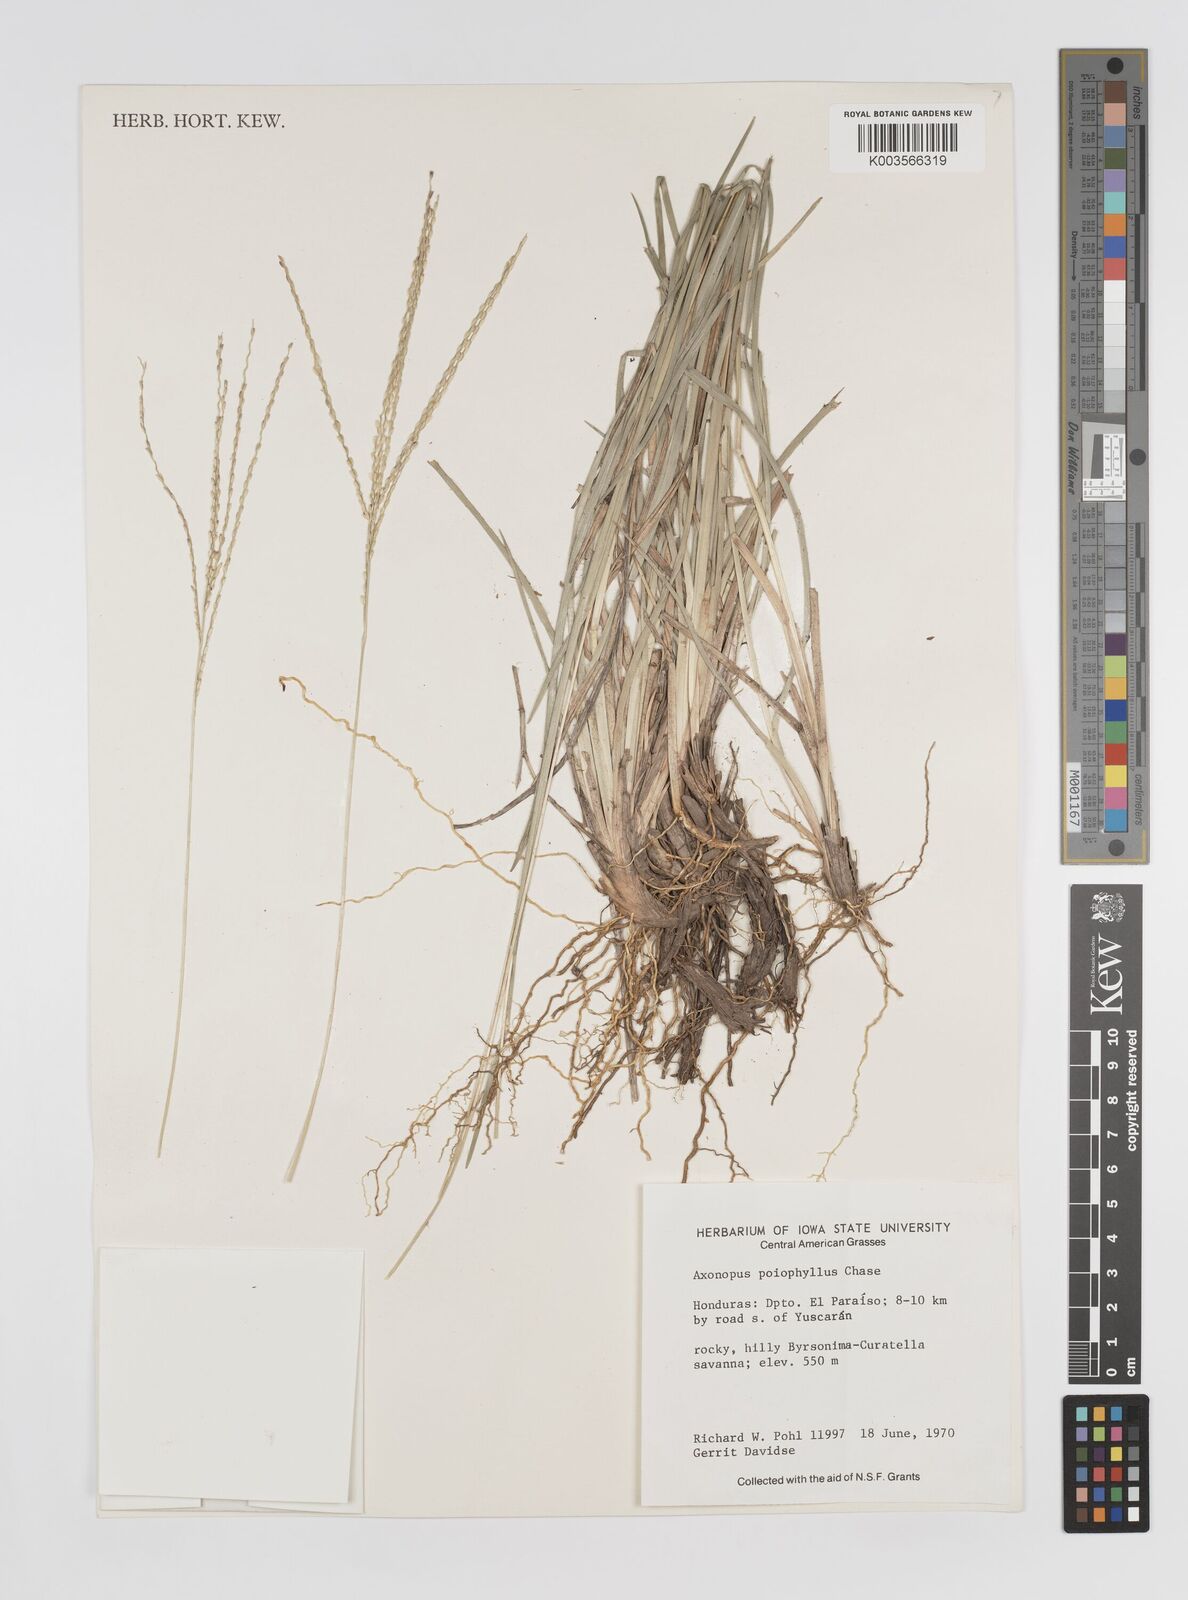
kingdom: Plantae
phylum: Tracheophyta
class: Liliopsida
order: Poales
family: Poaceae
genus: Axonopus
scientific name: Axonopus
